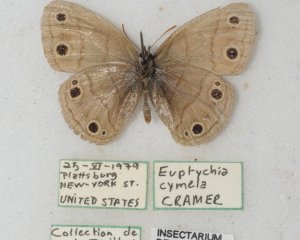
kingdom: Animalia
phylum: Arthropoda
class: Insecta
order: Lepidoptera
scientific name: Lepidoptera
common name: Butterflies
